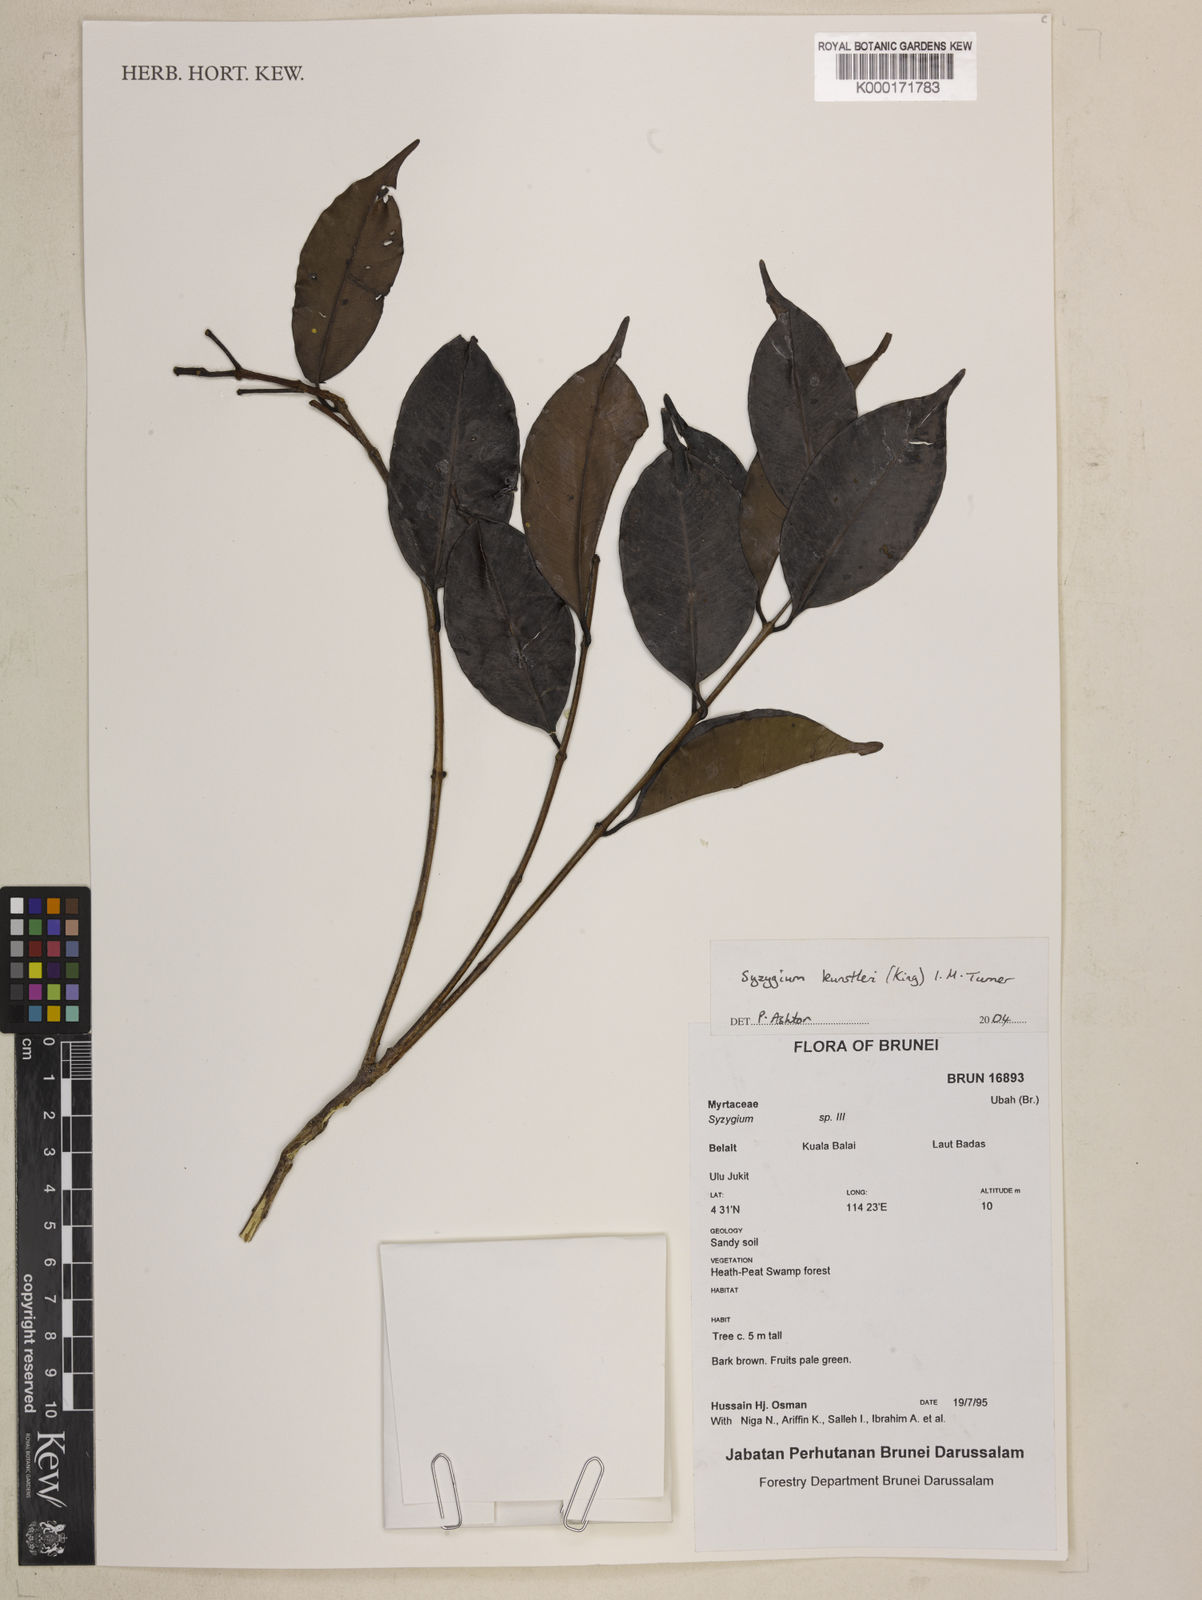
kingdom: Plantae
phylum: Tracheophyta
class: Magnoliopsida
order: Myrtales
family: Myrtaceae
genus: Syzygium
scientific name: Syzygium
